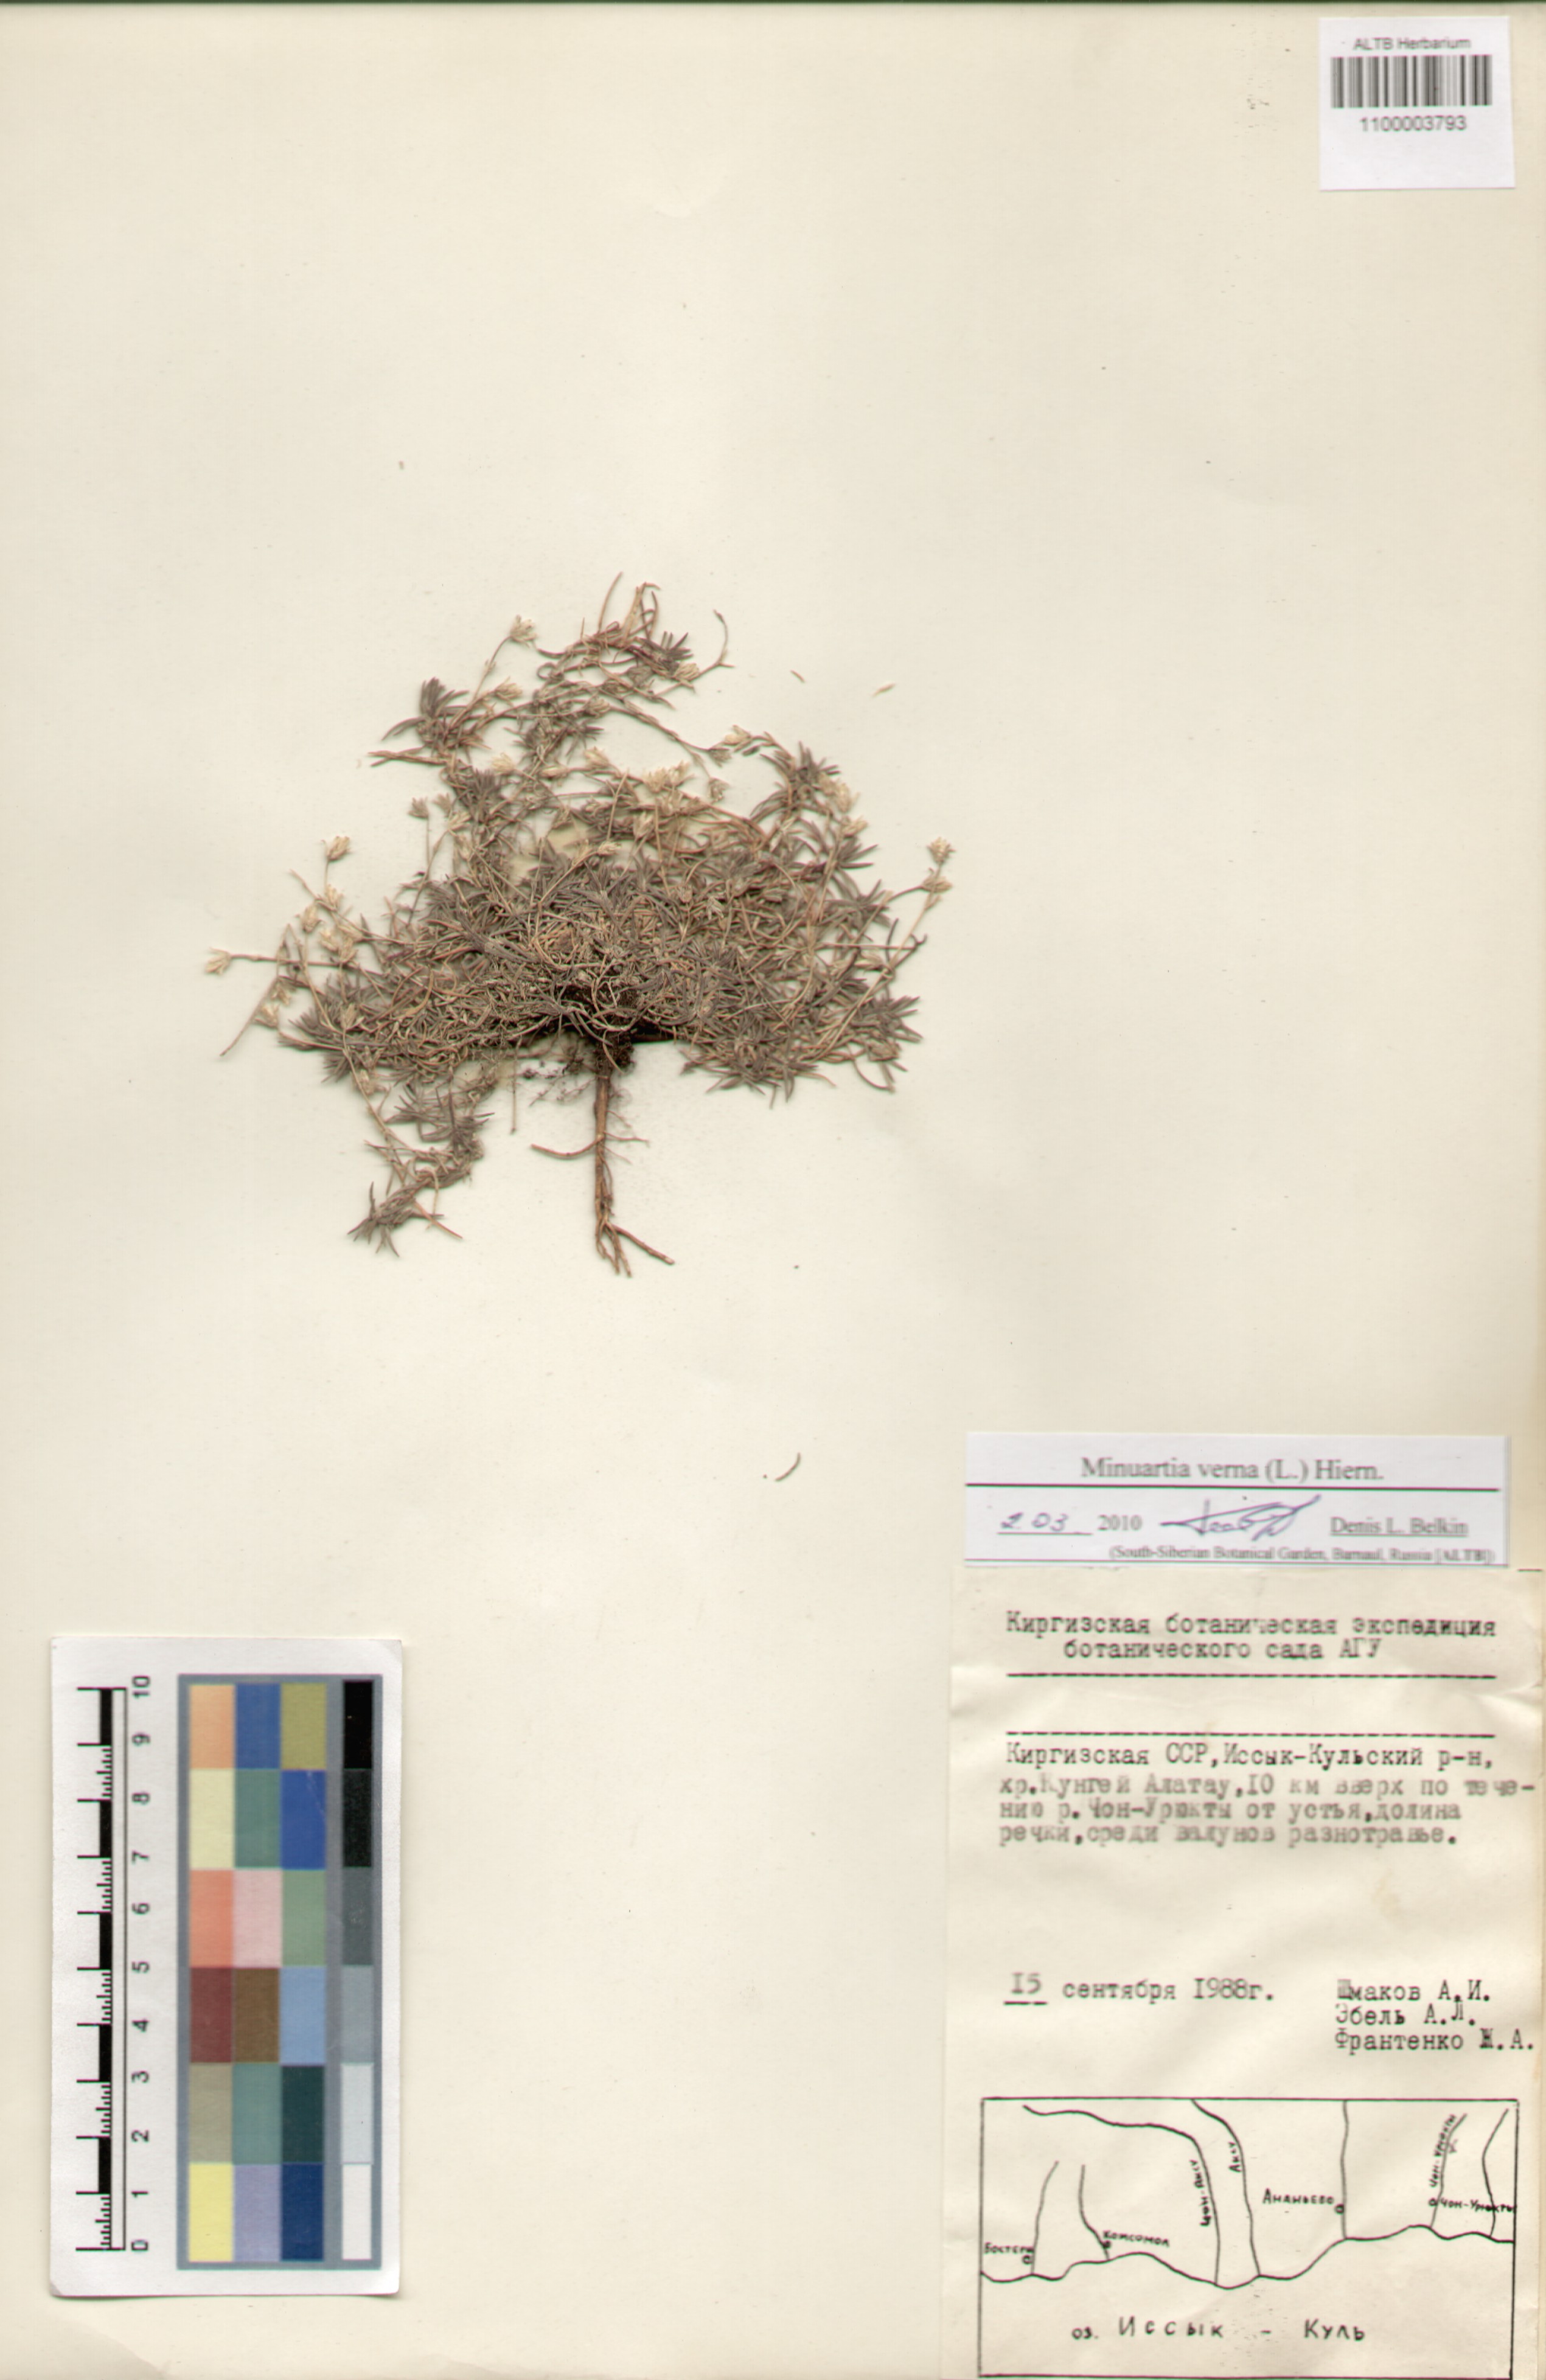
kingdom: Plantae
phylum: Tracheophyta
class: Magnoliopsida
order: Caryophyllales
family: Caryophyllaceae
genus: Sabulina
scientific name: Sabulina verna
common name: Spring sandwort
